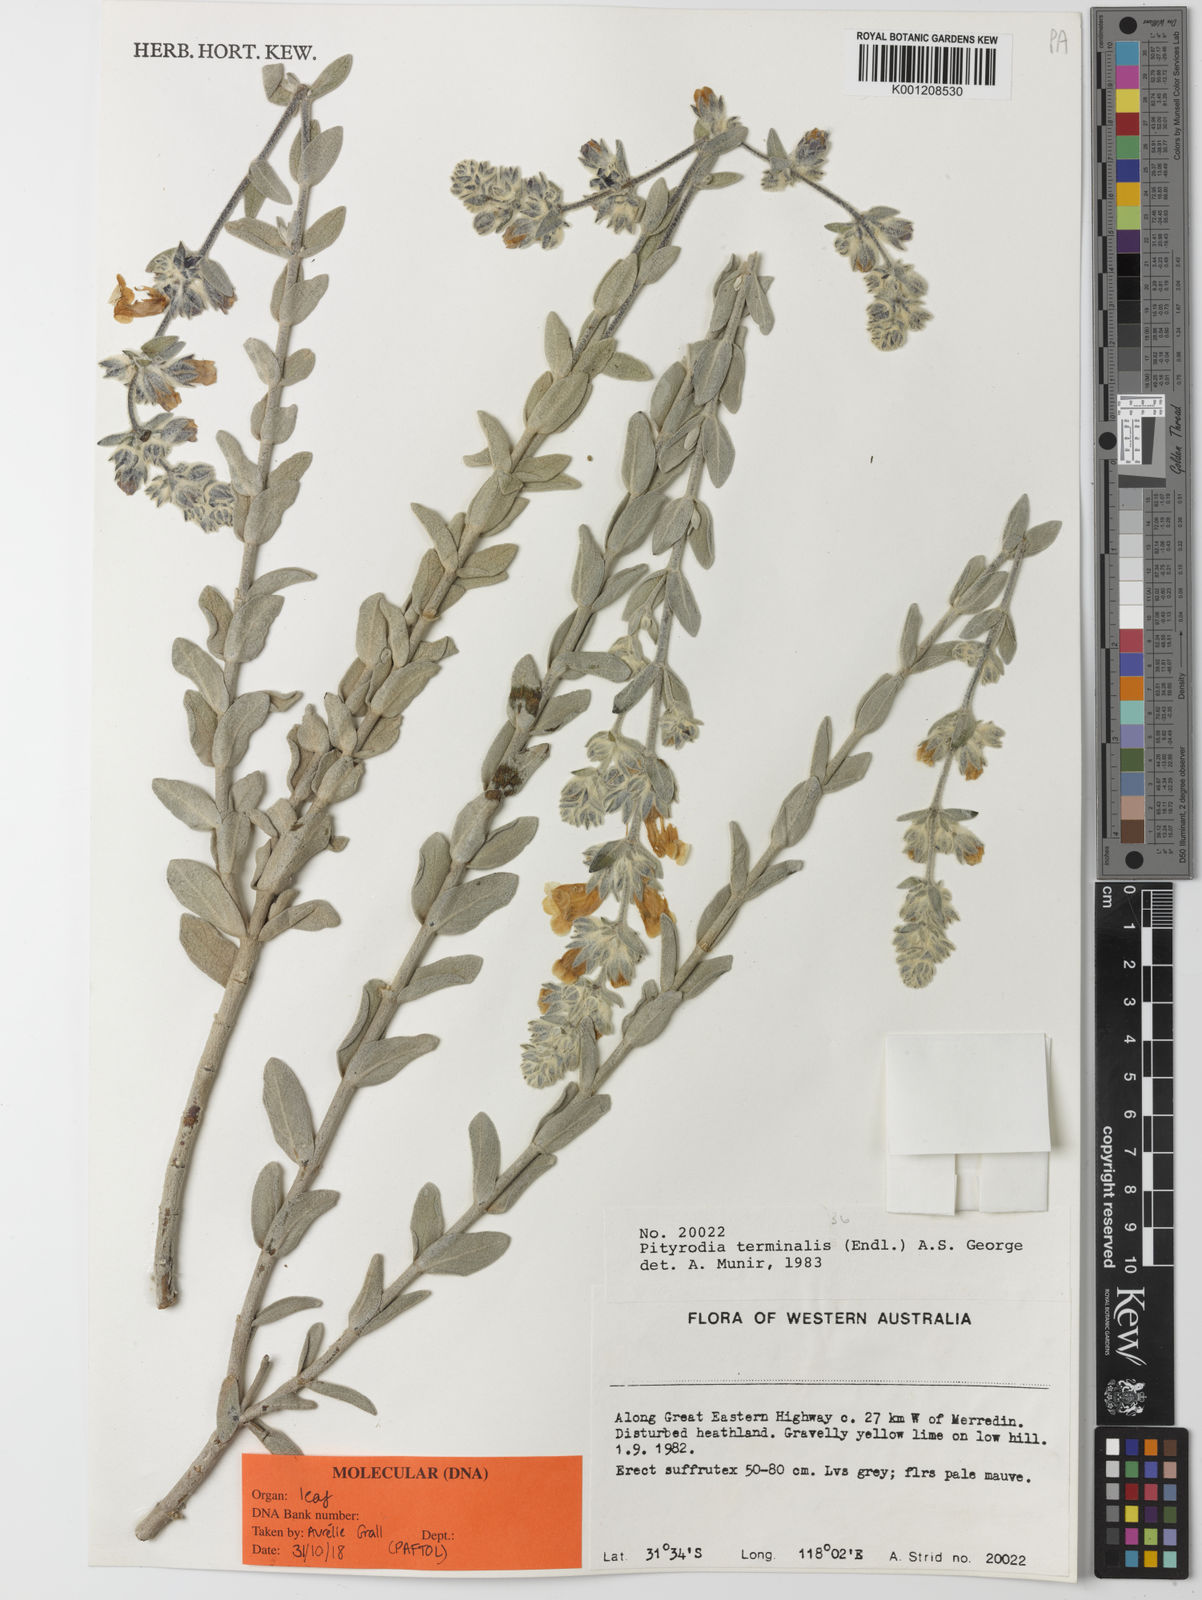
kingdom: Plantae
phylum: Tracheophyta
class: Magnoliopsida
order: Lamiales
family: Lamiaceae
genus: Dasymalla
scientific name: Dasymalla terminalis
